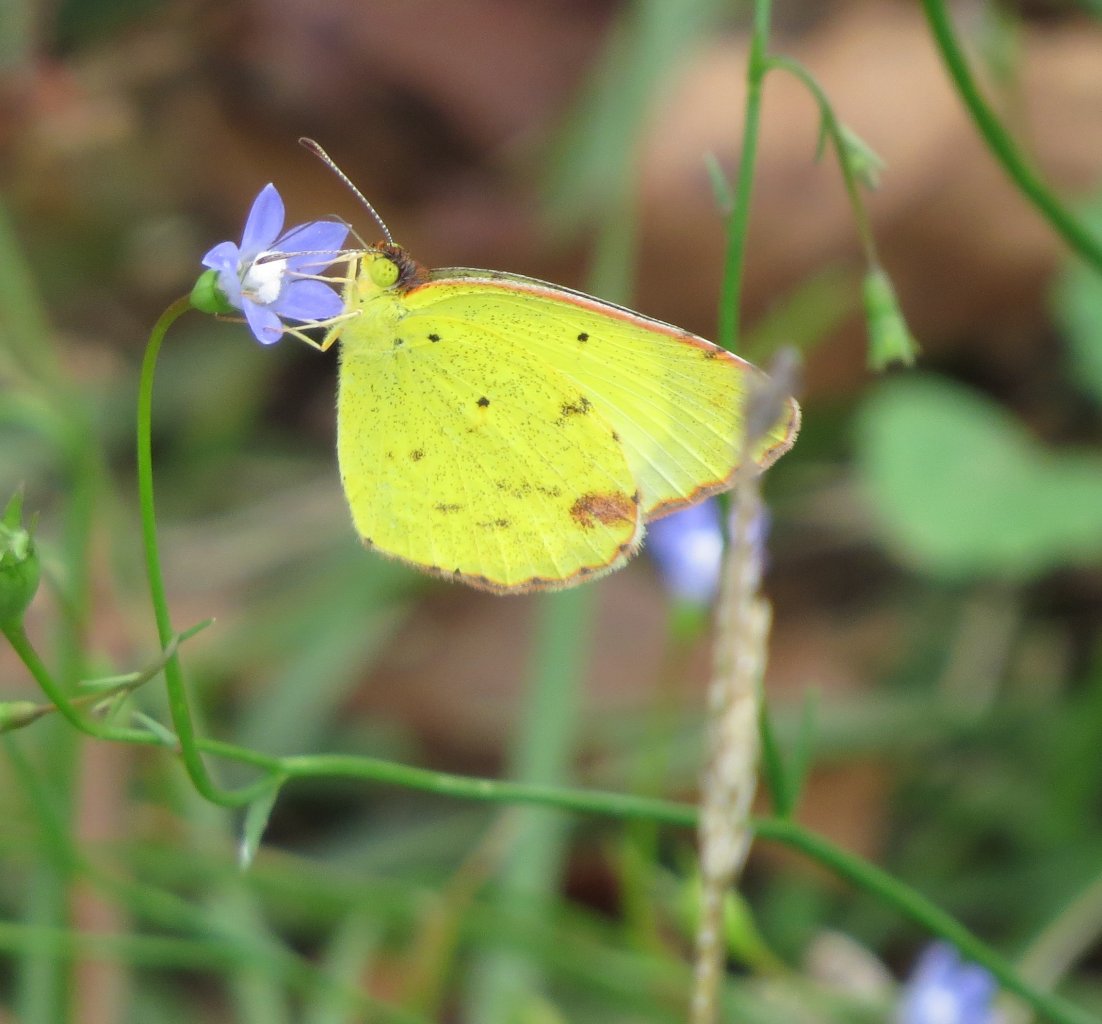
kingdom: Animalia
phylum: Arthropoda
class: Insecta
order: Lepidoptera
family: Pieridae
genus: Pyrisitia
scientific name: Pyrisitia lisa
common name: Little Yellow
